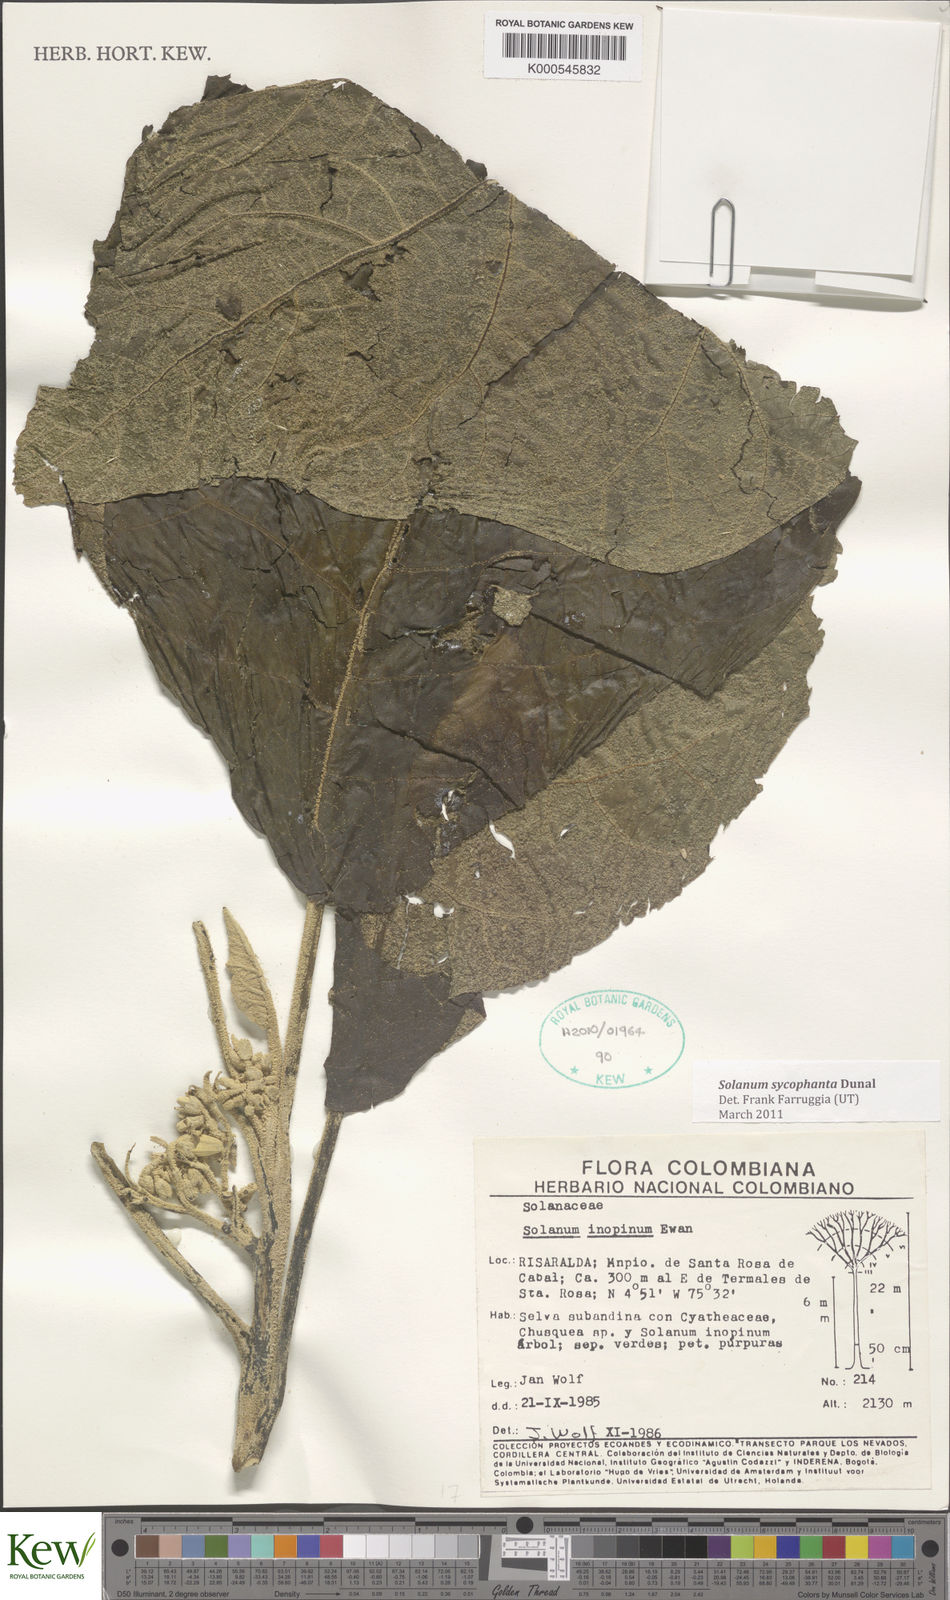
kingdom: Plantae
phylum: Tracheophyta
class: Magnoliopsida
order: Solanales
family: Solanaceae
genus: Solanum
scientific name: Solanum sycophanta
